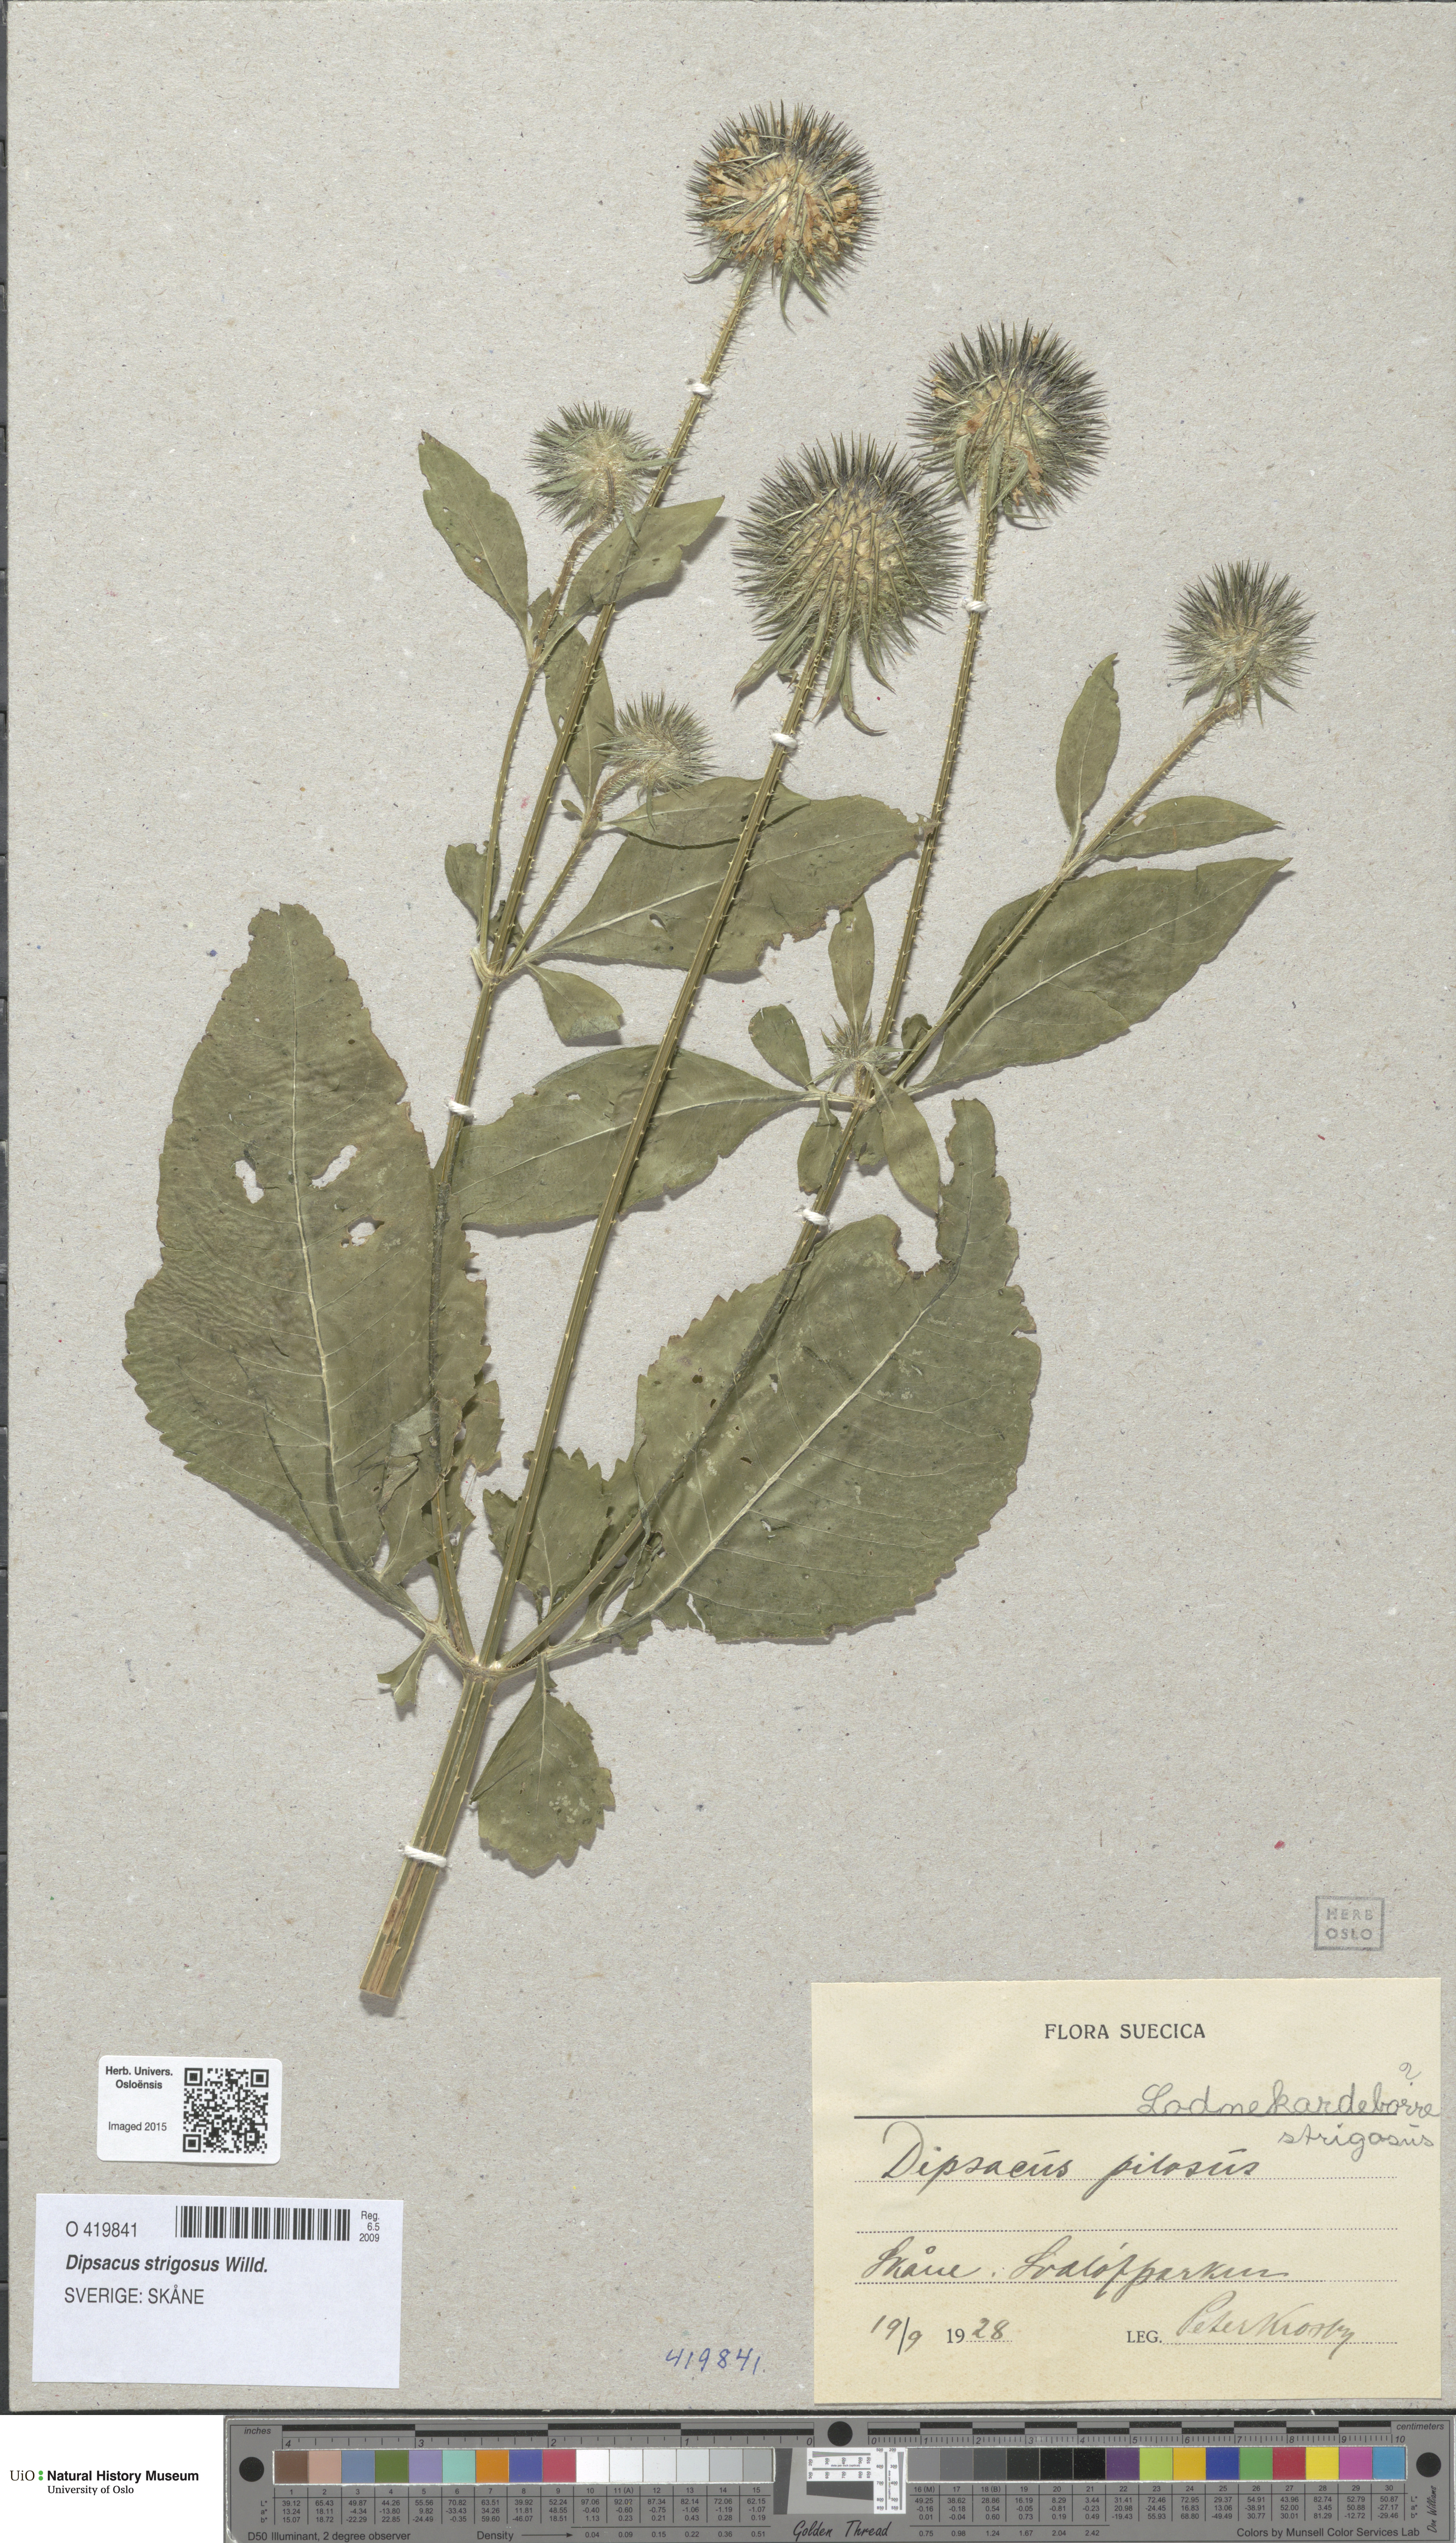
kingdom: Plantae
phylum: Tracheophyta
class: Magnoliopsida
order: Dipsacales
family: Caprifoliaceae
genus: Dipsacus
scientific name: Dipsacus strigosus
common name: Yellow-flowered teasel
